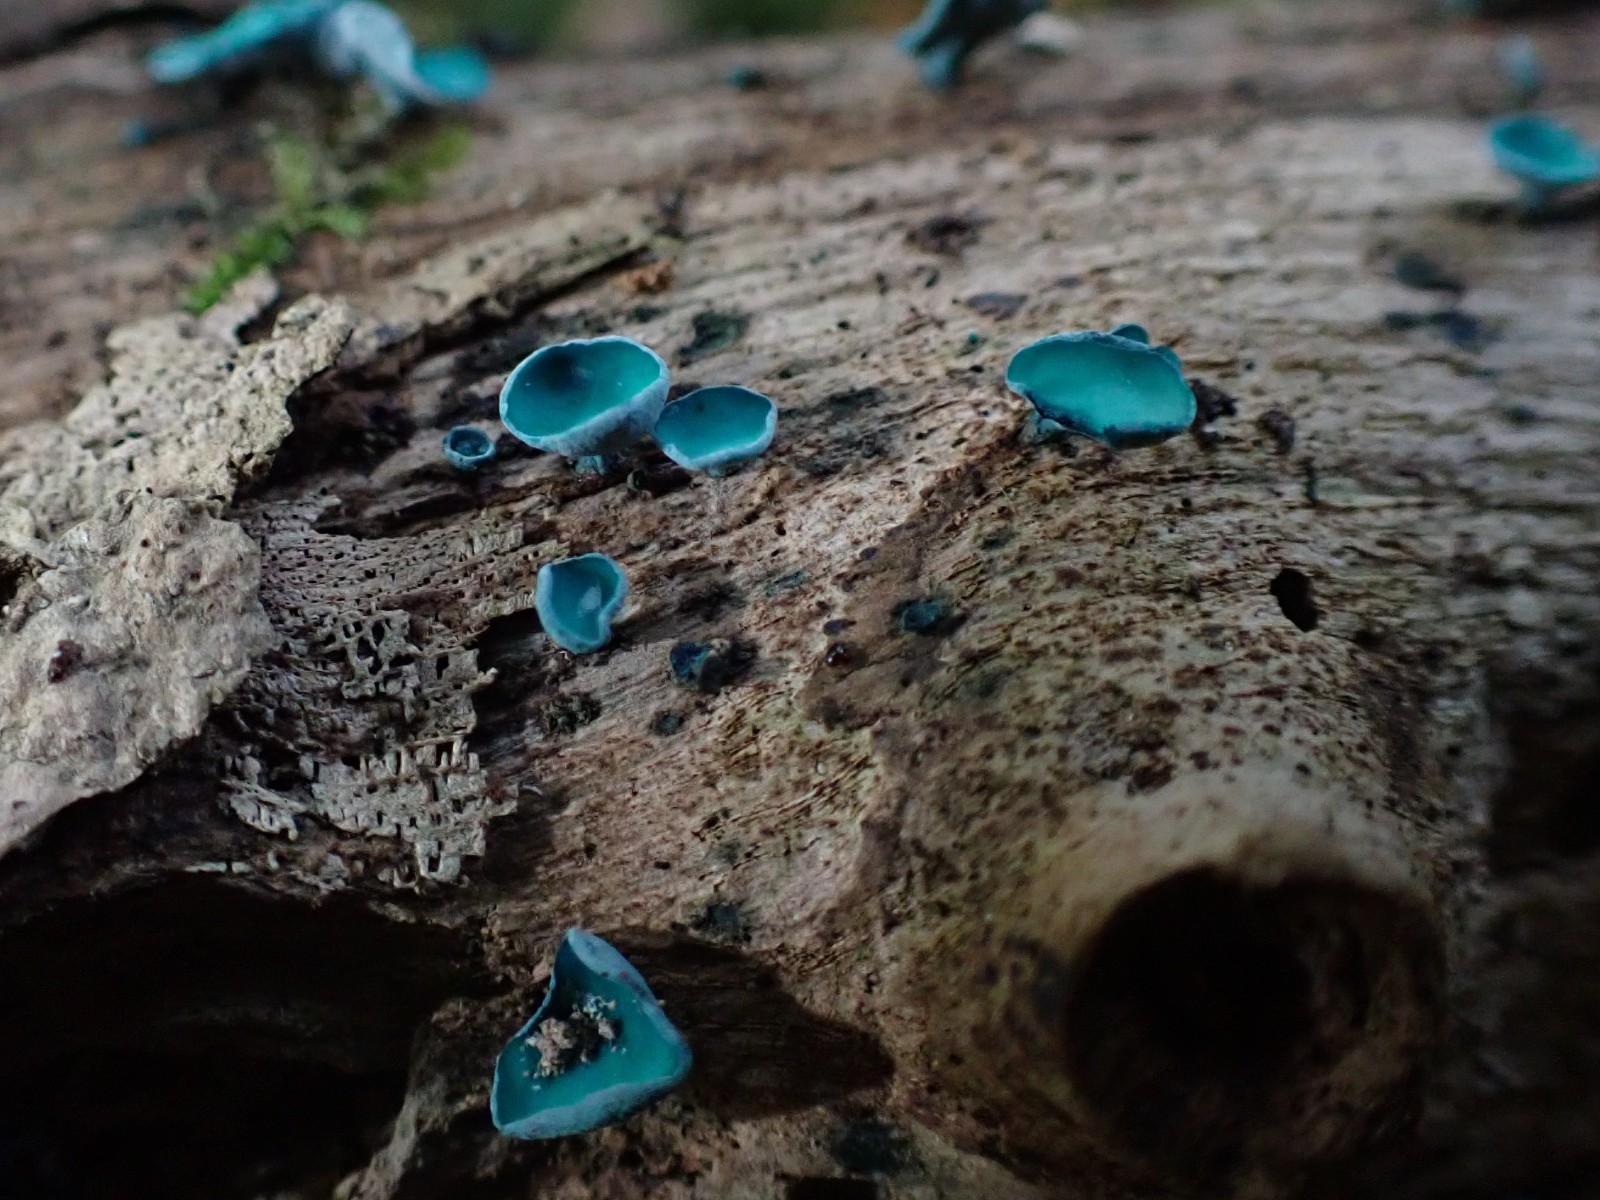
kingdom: Fungi
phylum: Ascomycota
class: Leotiomycetes
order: Helotiales
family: Chlorociboriaceae
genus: Chlorociboria
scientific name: Chlorociboria aeruginascens
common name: almindelig grønskive
